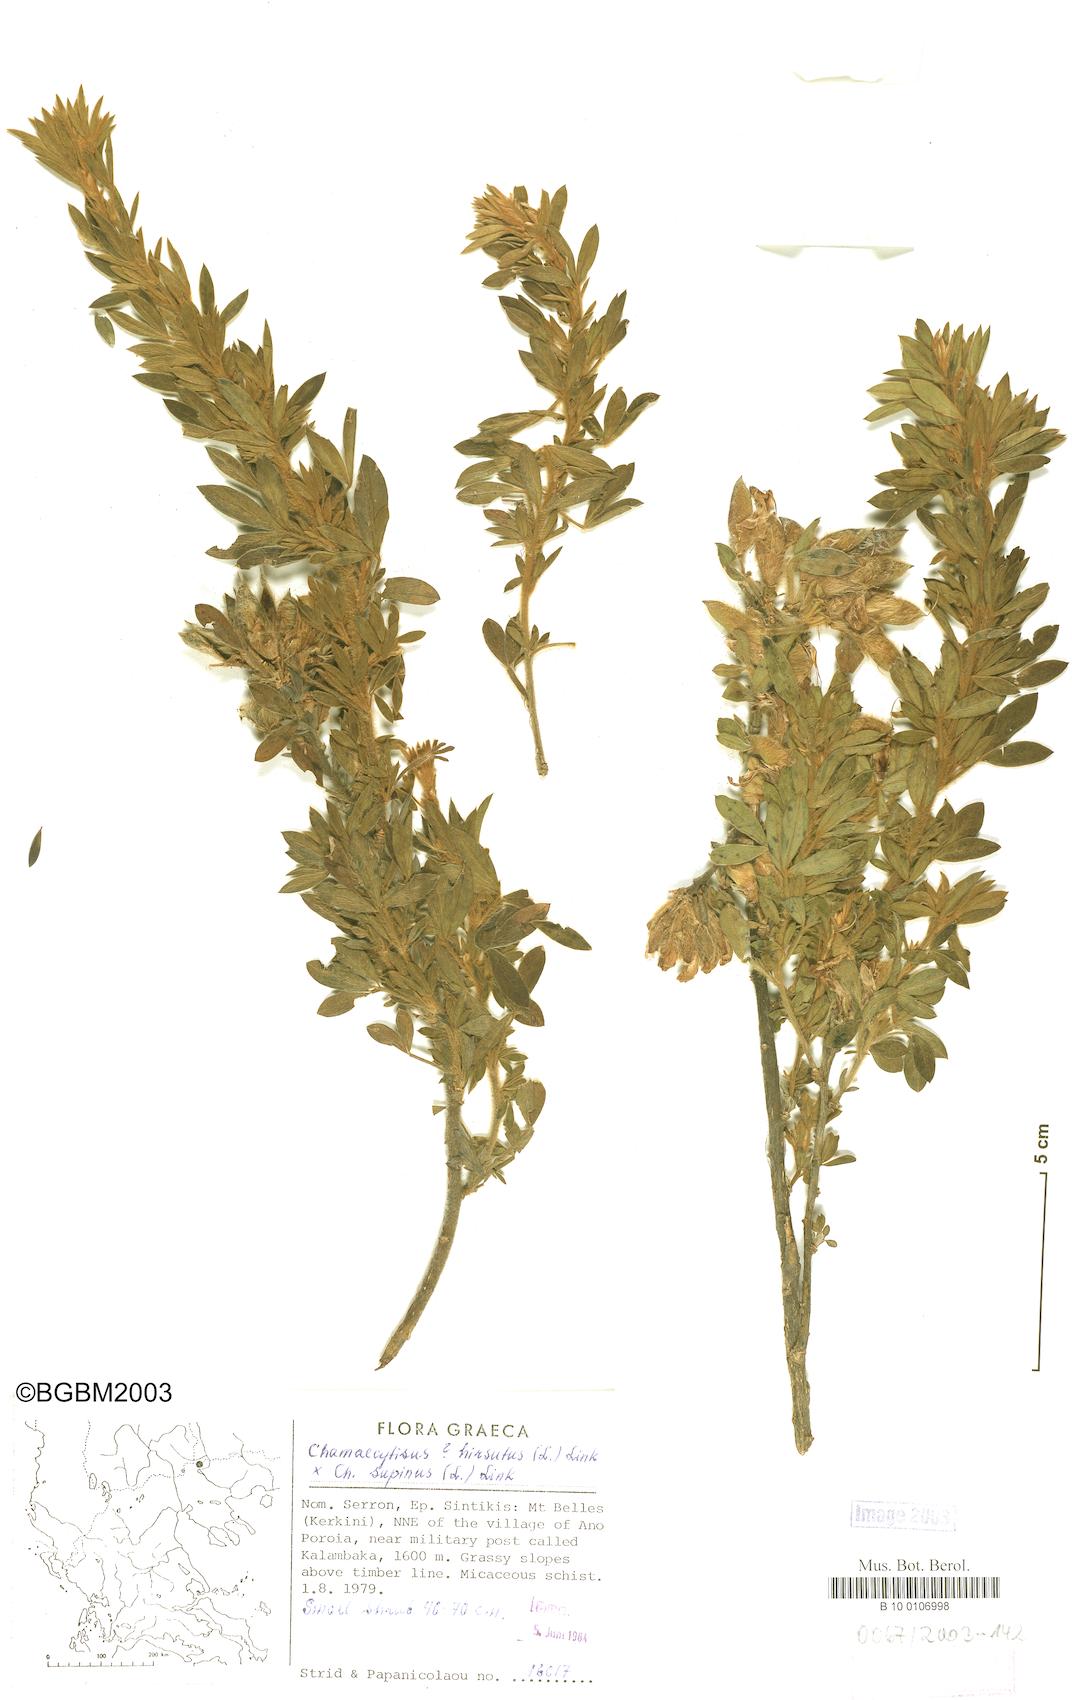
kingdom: Plantae
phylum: Tracheophyta
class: Magnoliopsida
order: Fabales
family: Fabaceae
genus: Chamaecytisus
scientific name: Chamaecytisus hirsutus
